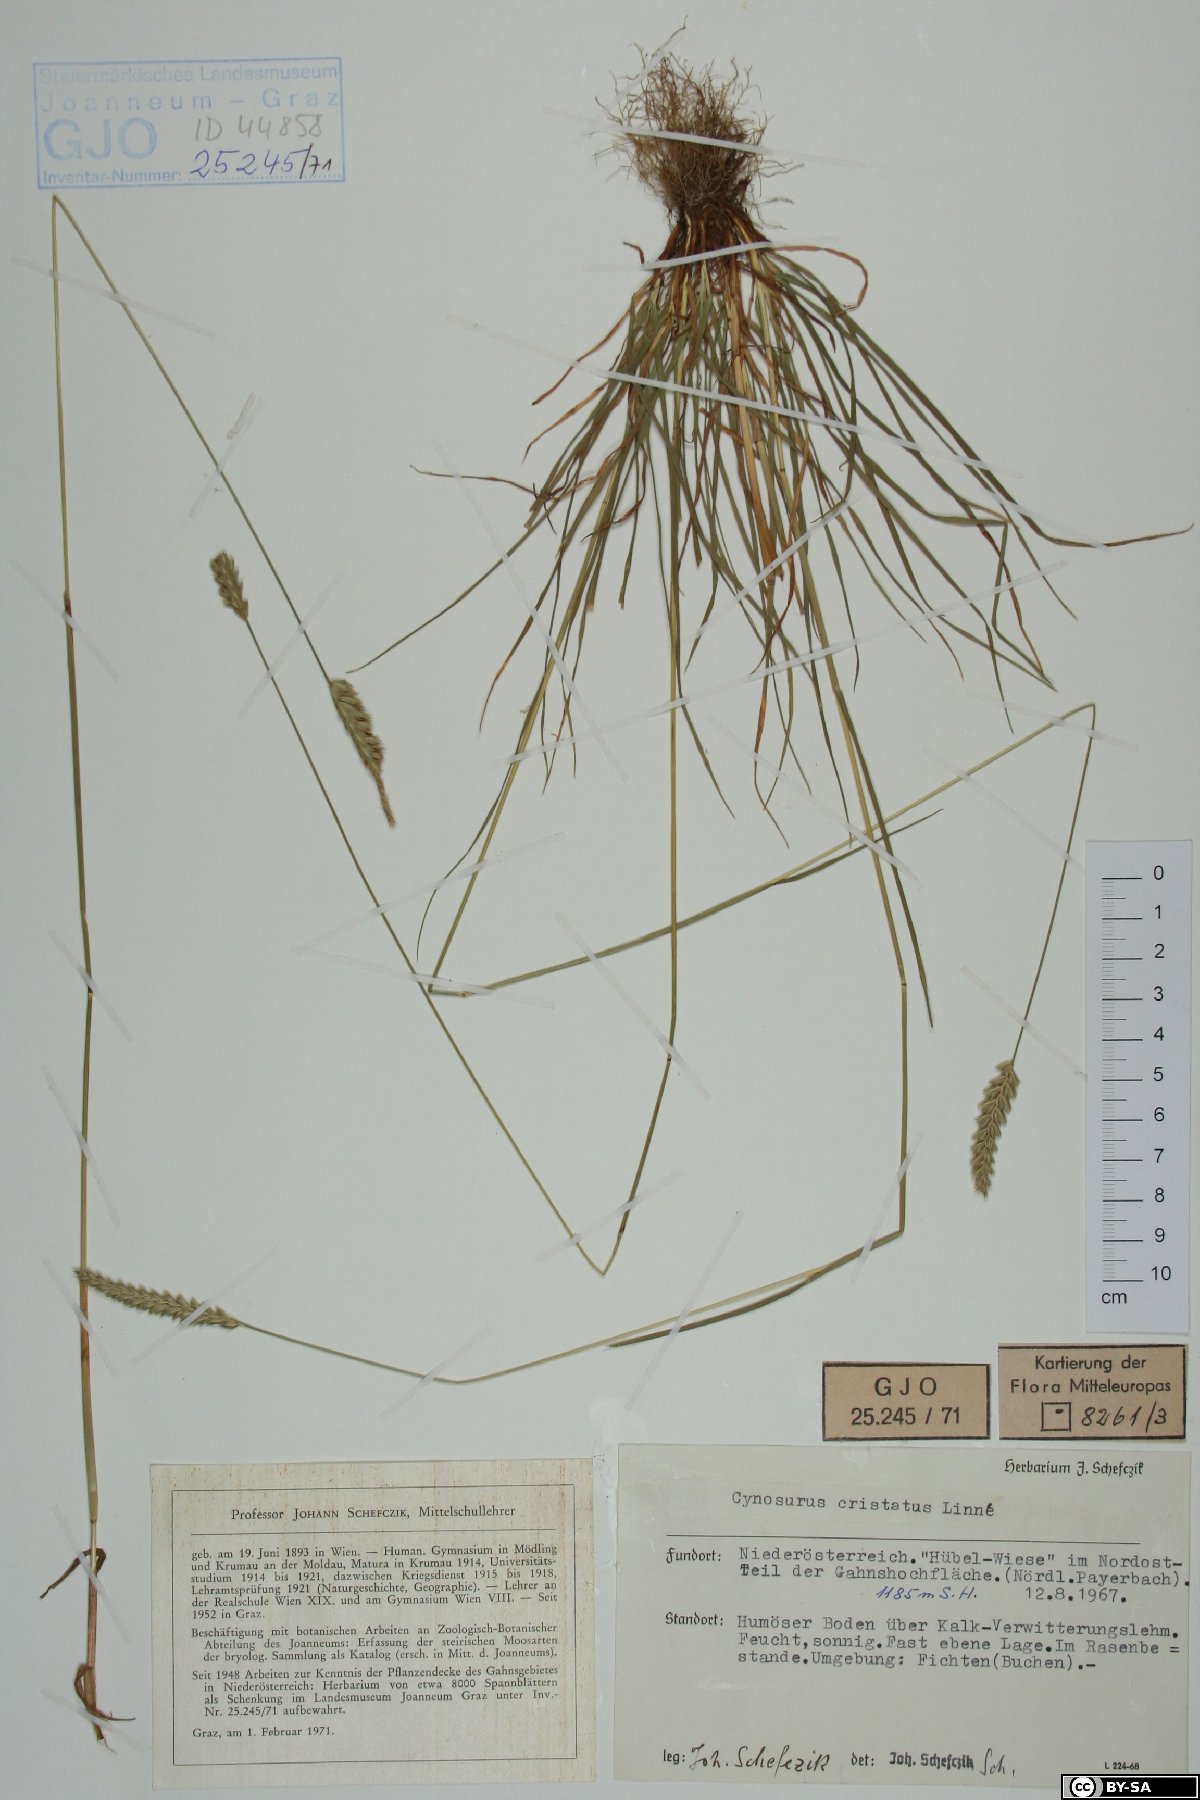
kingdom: Plantae
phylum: Tracheophyta
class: Liliopsida
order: Poales
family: Poaceae
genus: Cynosurus
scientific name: Cynosurus cristatus
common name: Crested dog's-tail
